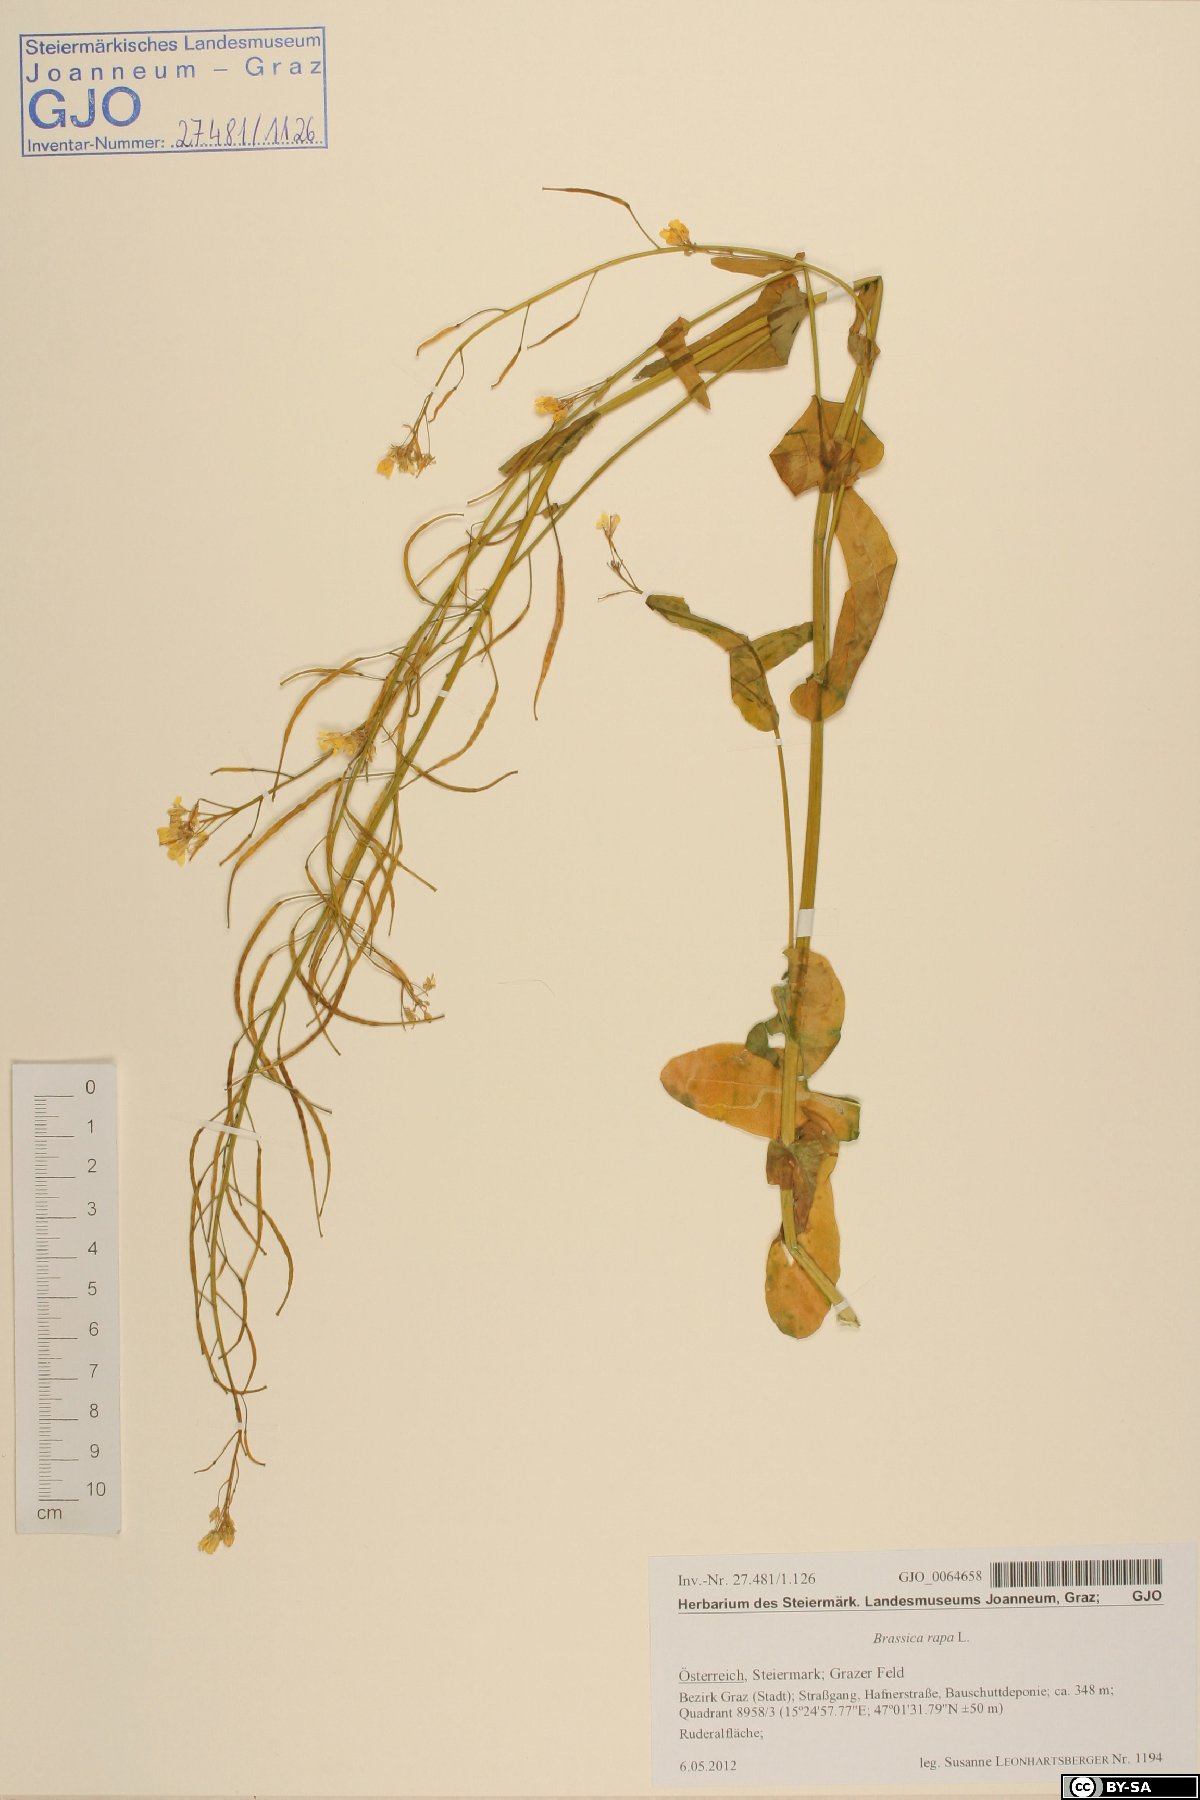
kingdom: Plantae
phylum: Tracheophyta
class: Magnoliopsida
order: Brassicales
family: Brassicaceae
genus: Brassica
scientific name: Brassica rapa
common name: Field mustard
